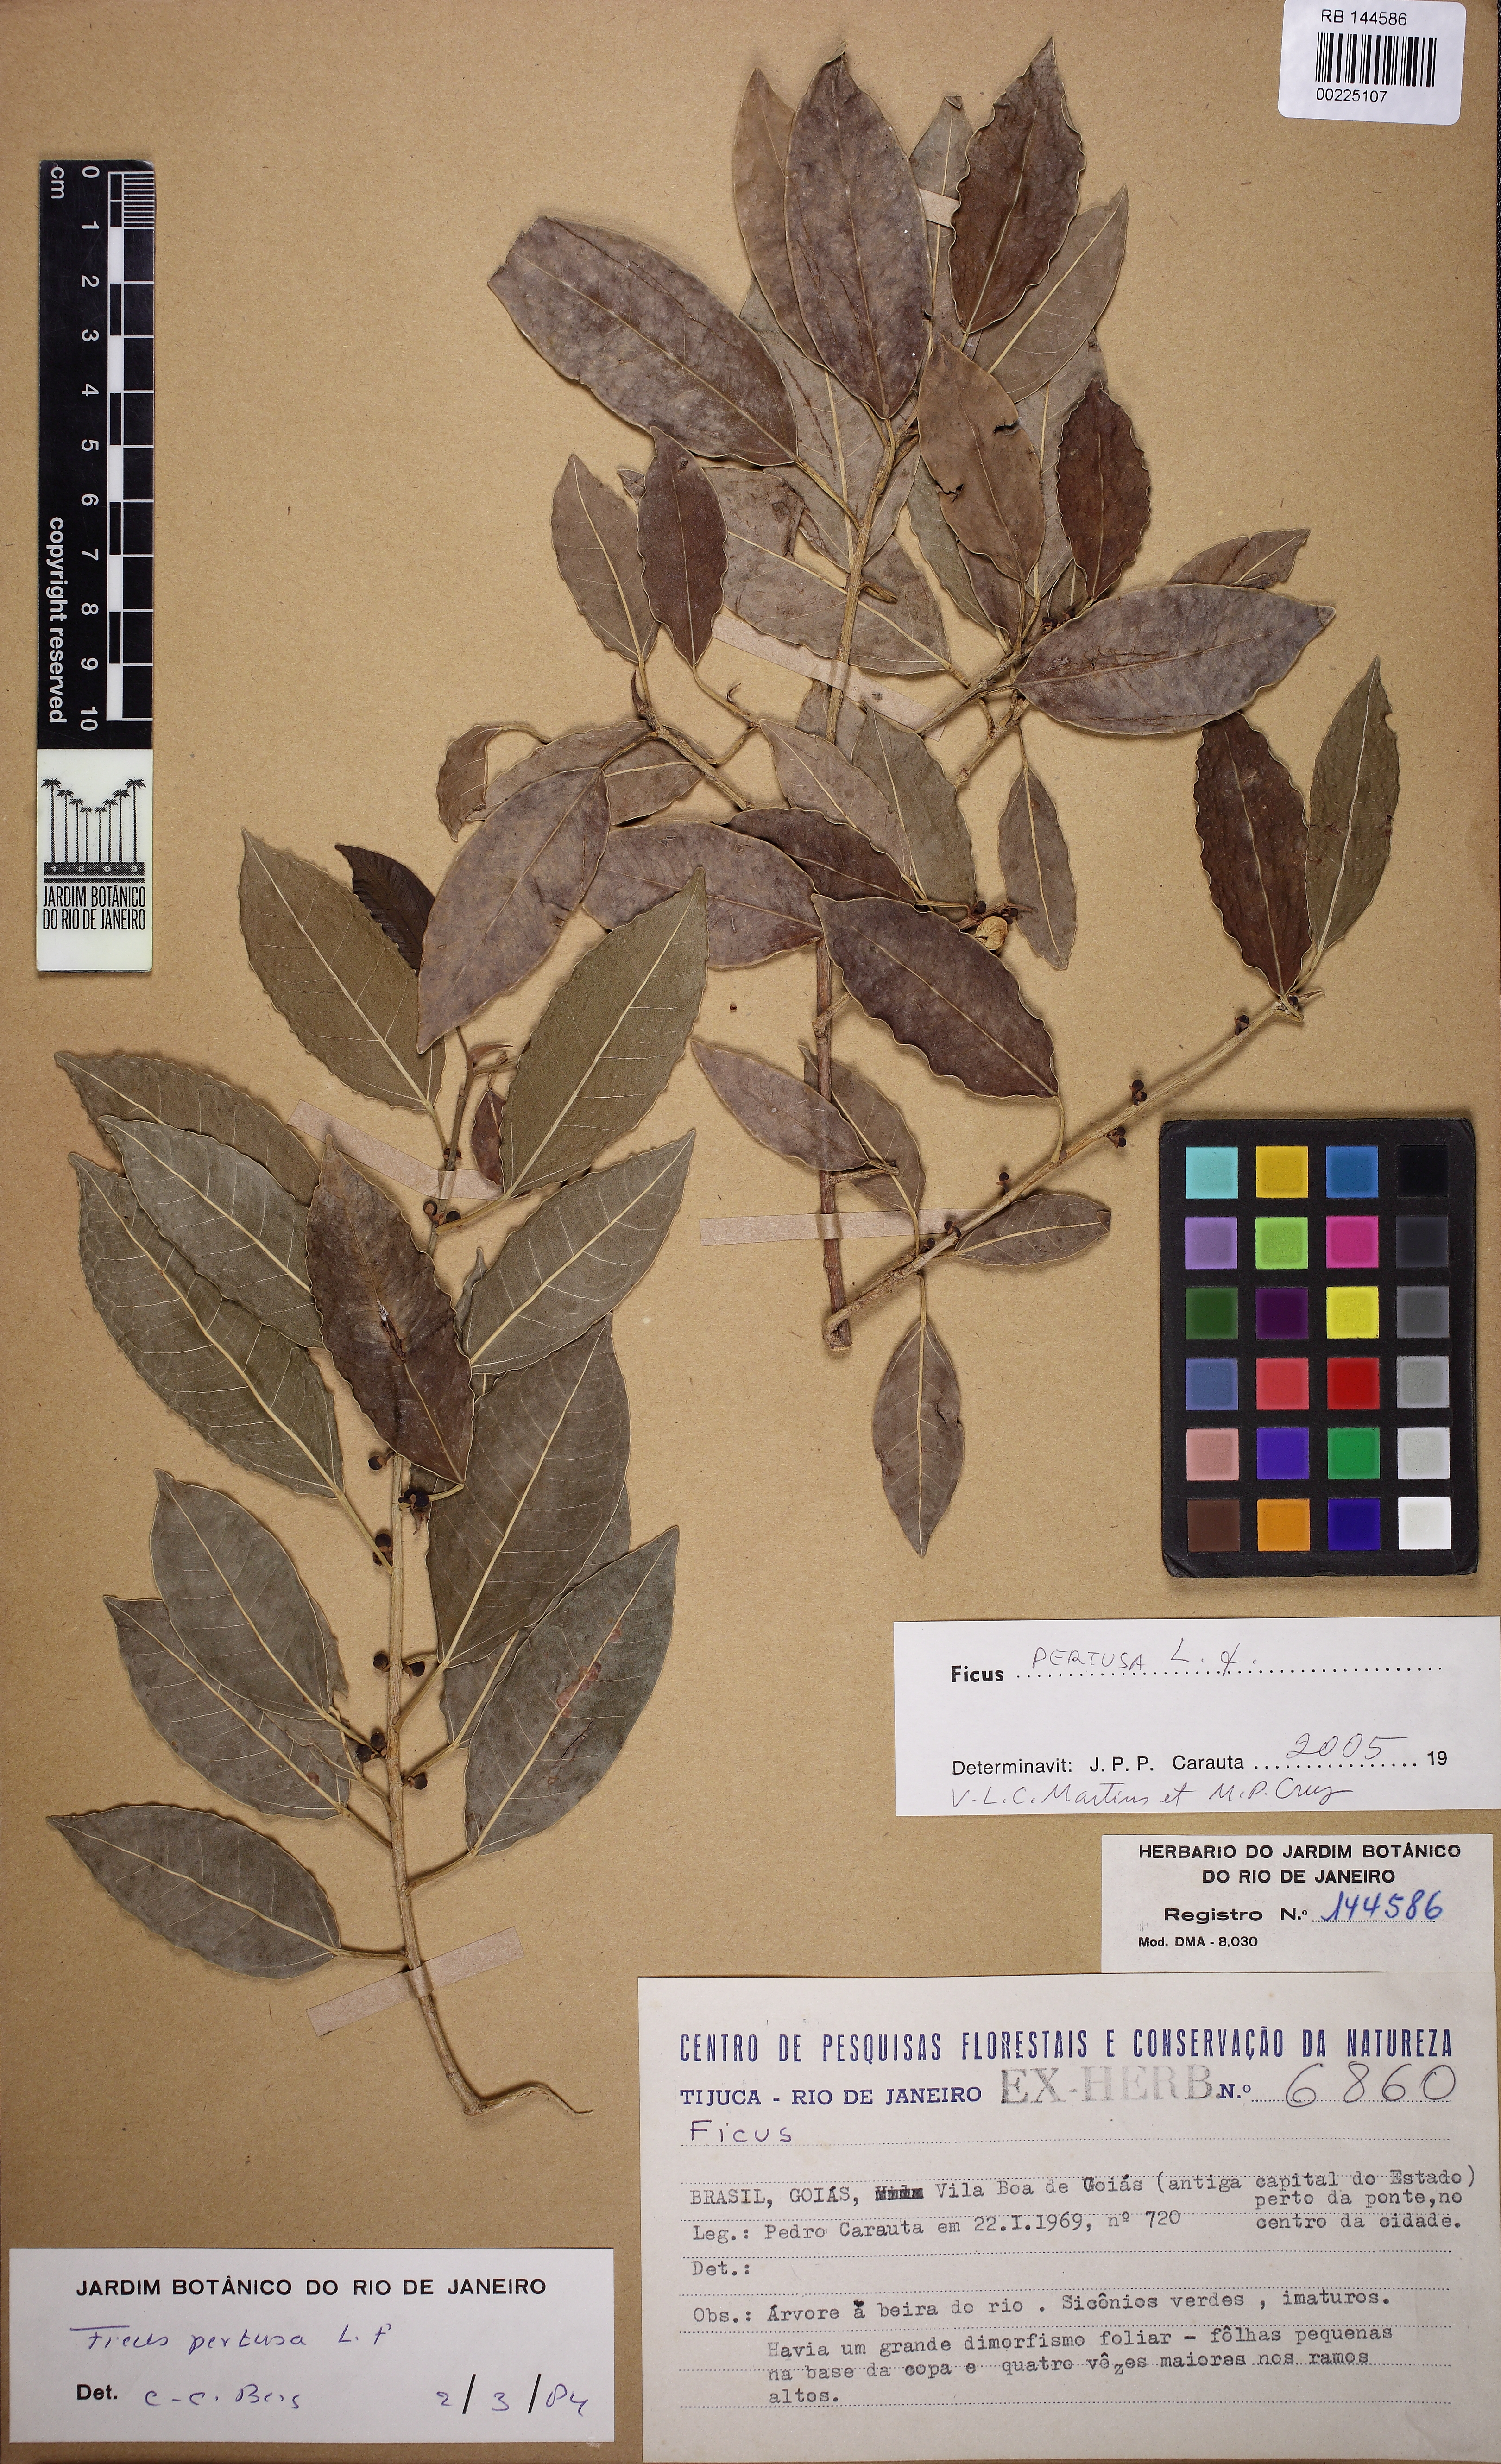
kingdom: Plantae
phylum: Tracheophyta
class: Magnoliopsida
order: Rosales
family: Moraceae
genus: Ficus
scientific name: Ficus pertusa
